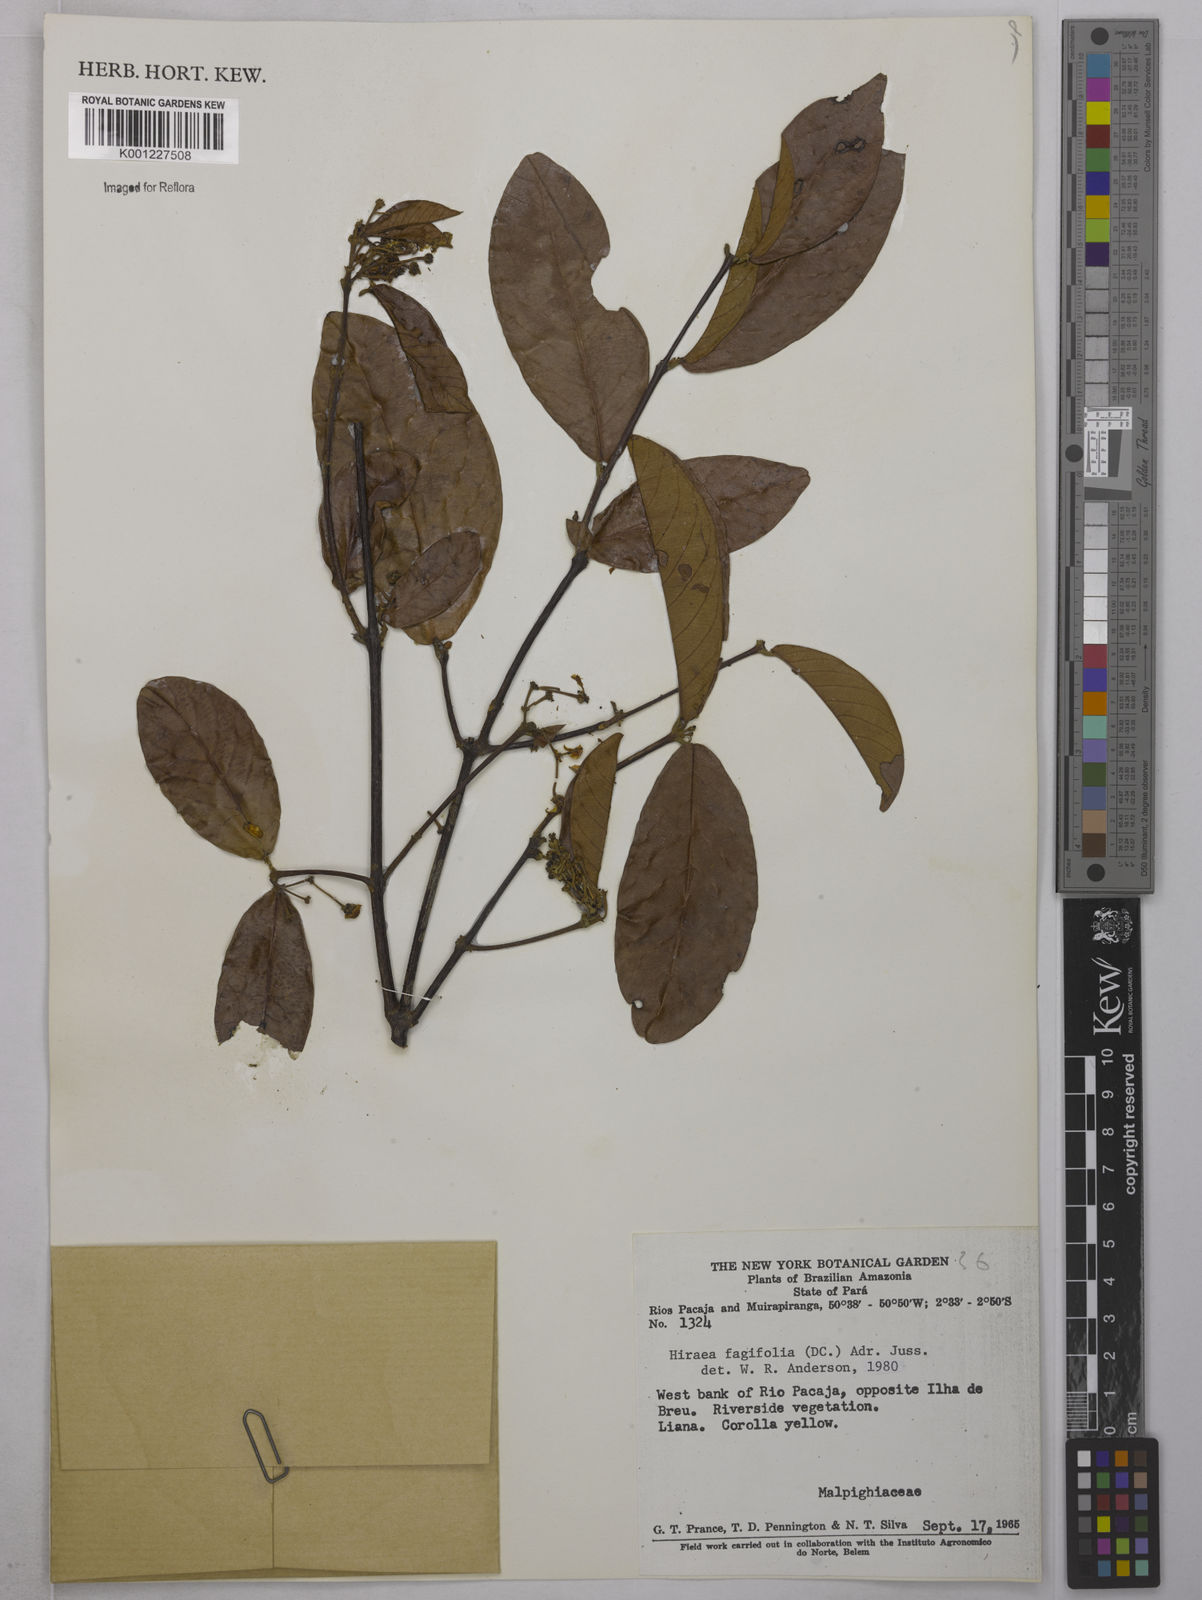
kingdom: Plantae
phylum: Tracheophyta
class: Magnoliopsida
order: Malpighiales
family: Malpighiaceae
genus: Hiraea
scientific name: Hiraea fagifolia
